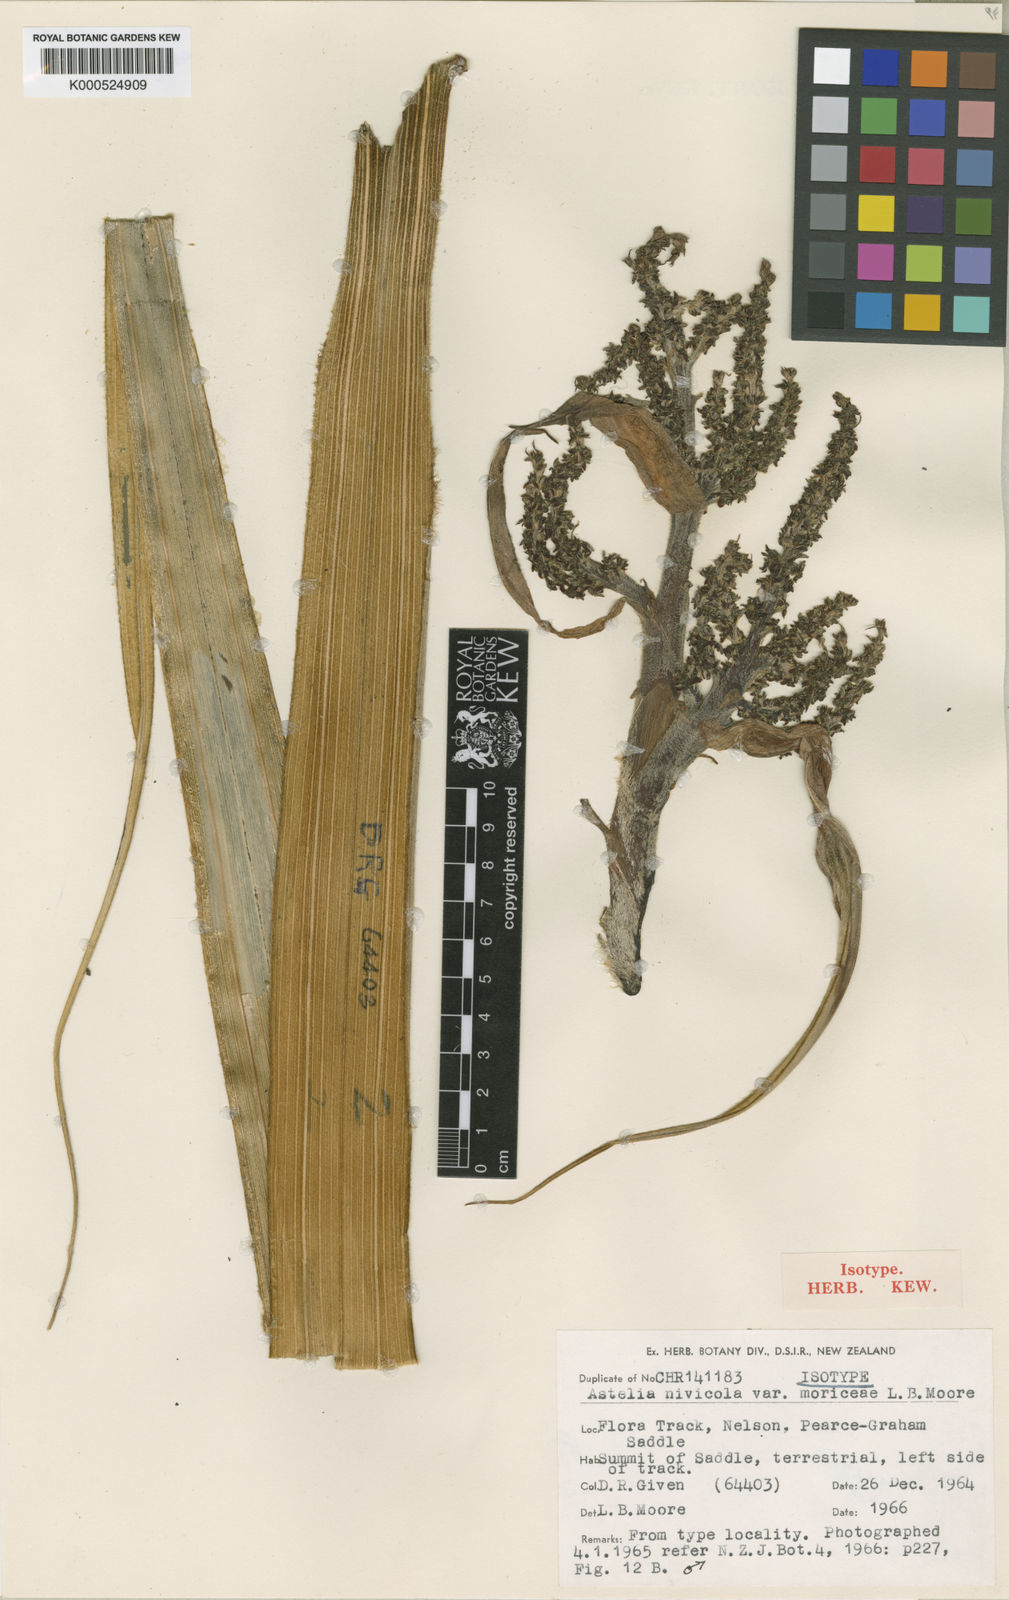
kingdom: Plantae
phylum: Tracheophyta
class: Liliopsida
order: Asparagales
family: Asteliaceae
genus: Astelia
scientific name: Astelia nivicola
